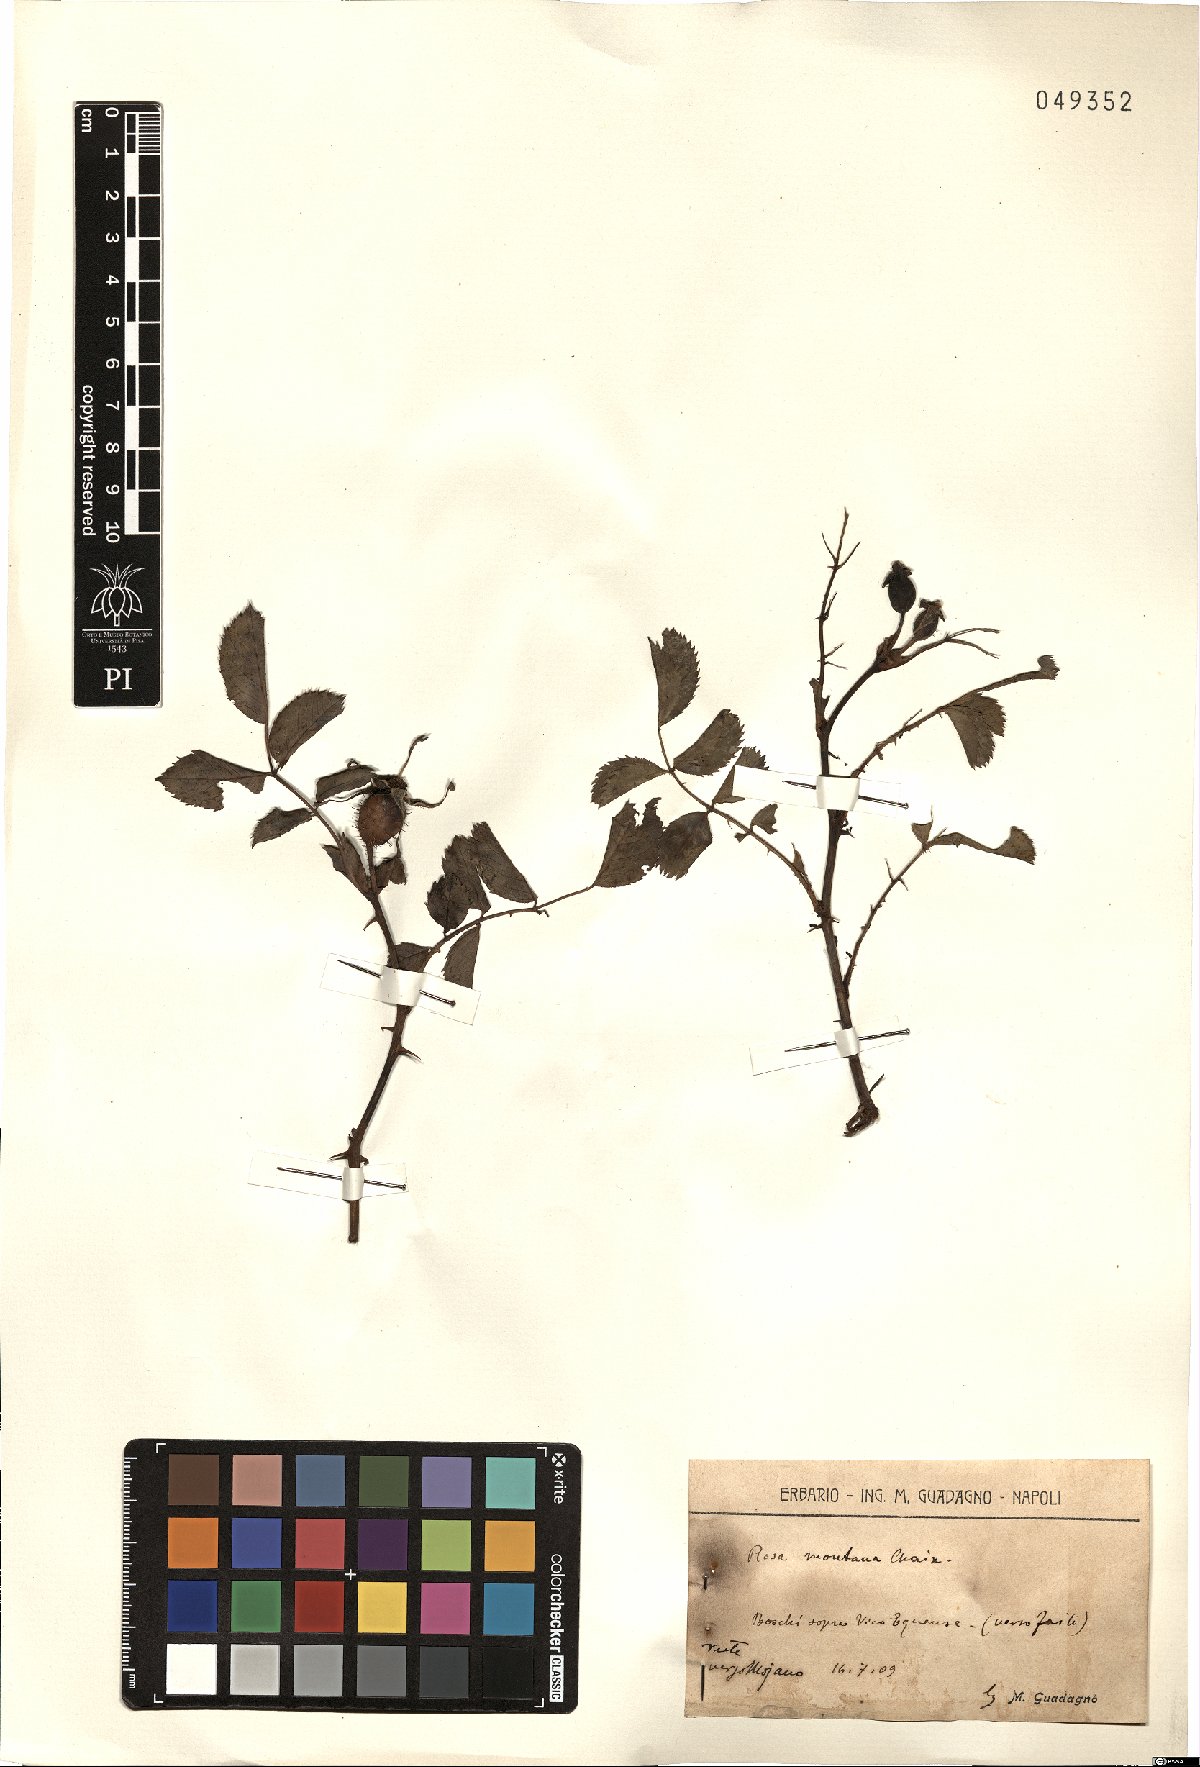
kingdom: Plantae
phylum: Tracheophyta
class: Magnoliopsida
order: Rosales
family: Rosaceae
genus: Rosa
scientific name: Rosa montana
